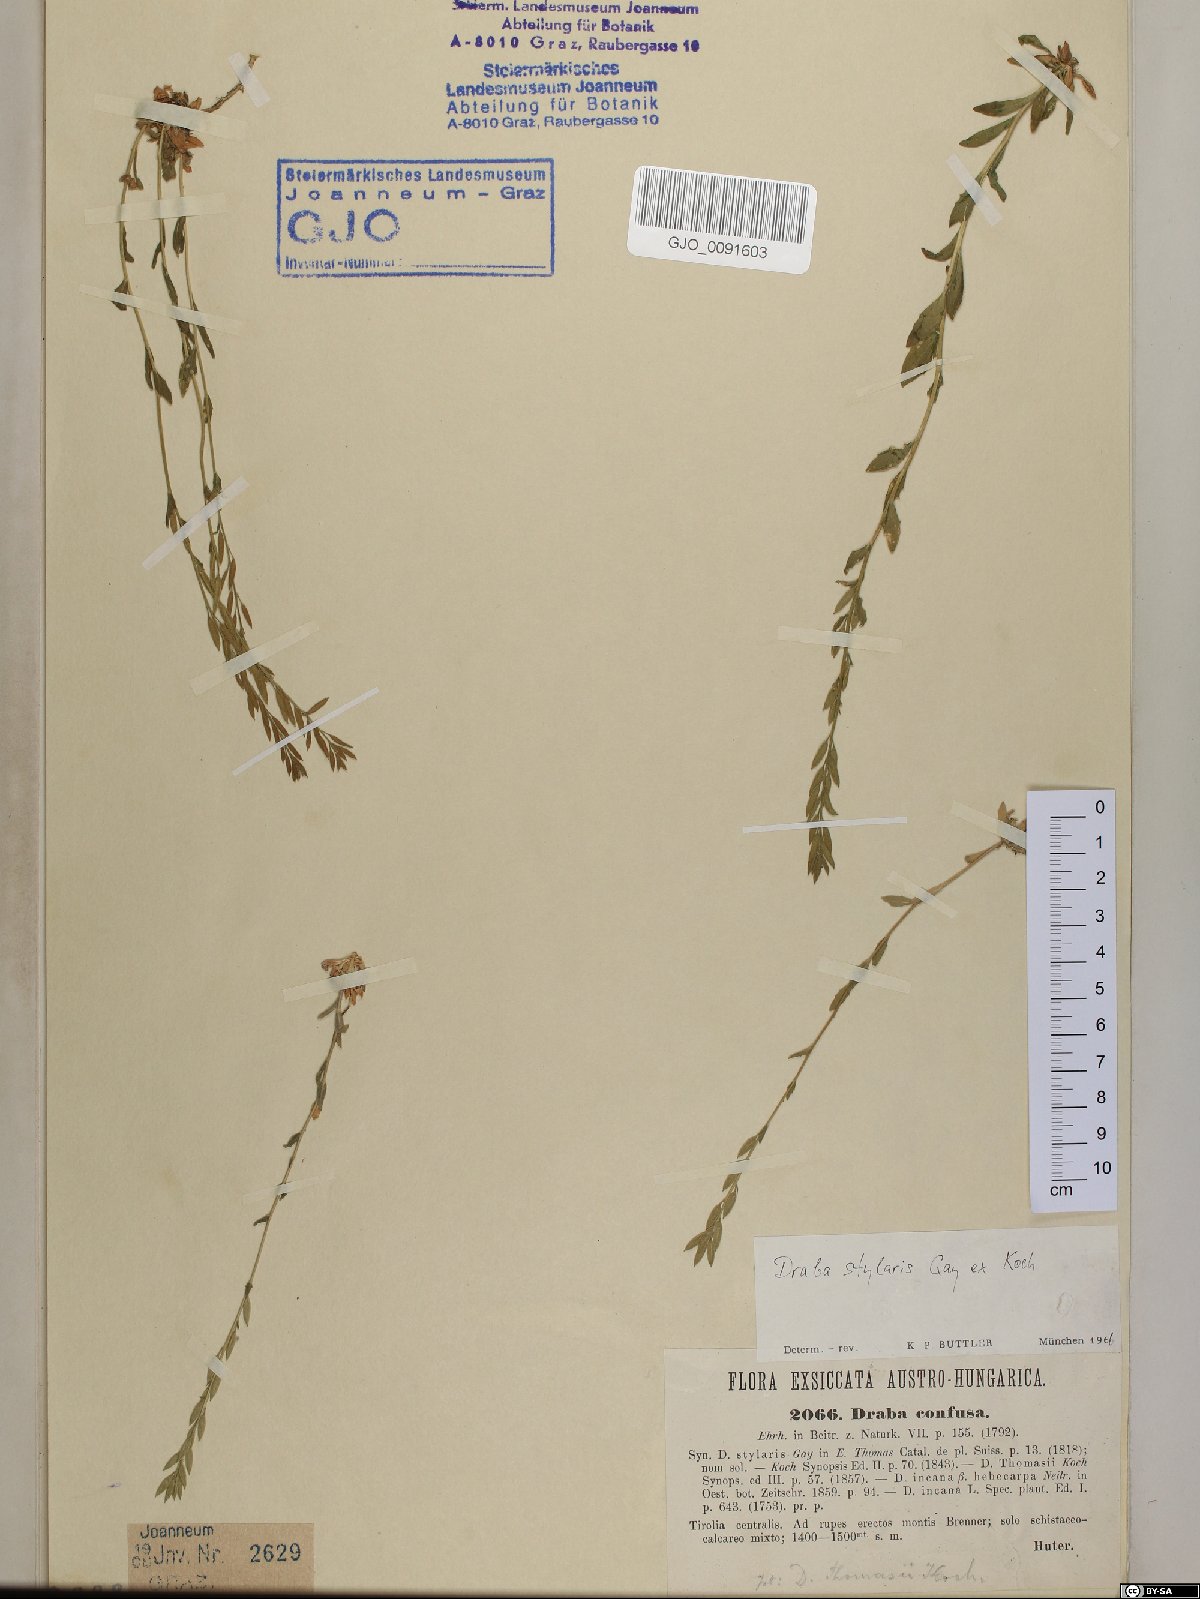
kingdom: Plantae
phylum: Tracheophyta
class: Magnoliopsida
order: Brassicales
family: Brassicaceae
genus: Draba
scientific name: Draba thomasii
